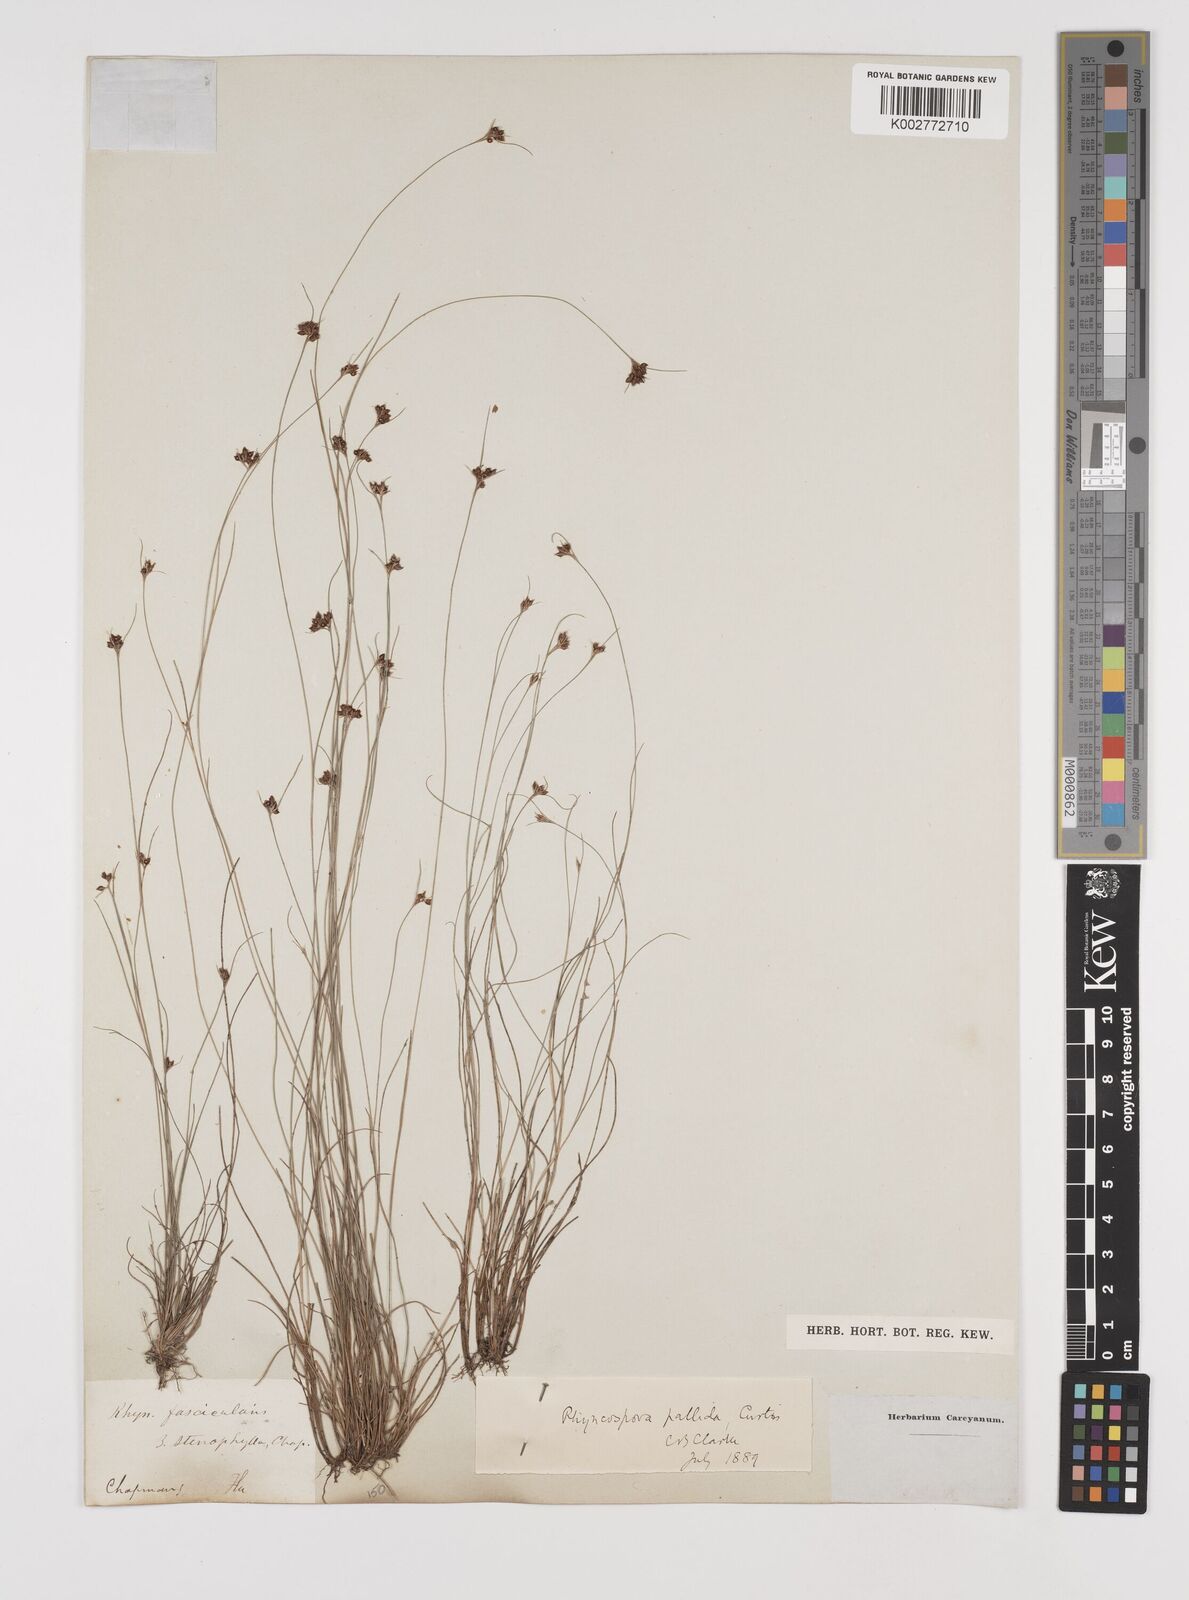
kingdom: Plantae
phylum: Tracheophyta
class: Liliopsida
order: Poales
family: Cyperaceae
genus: Rhynchospora
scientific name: Rhynchospora pallida
